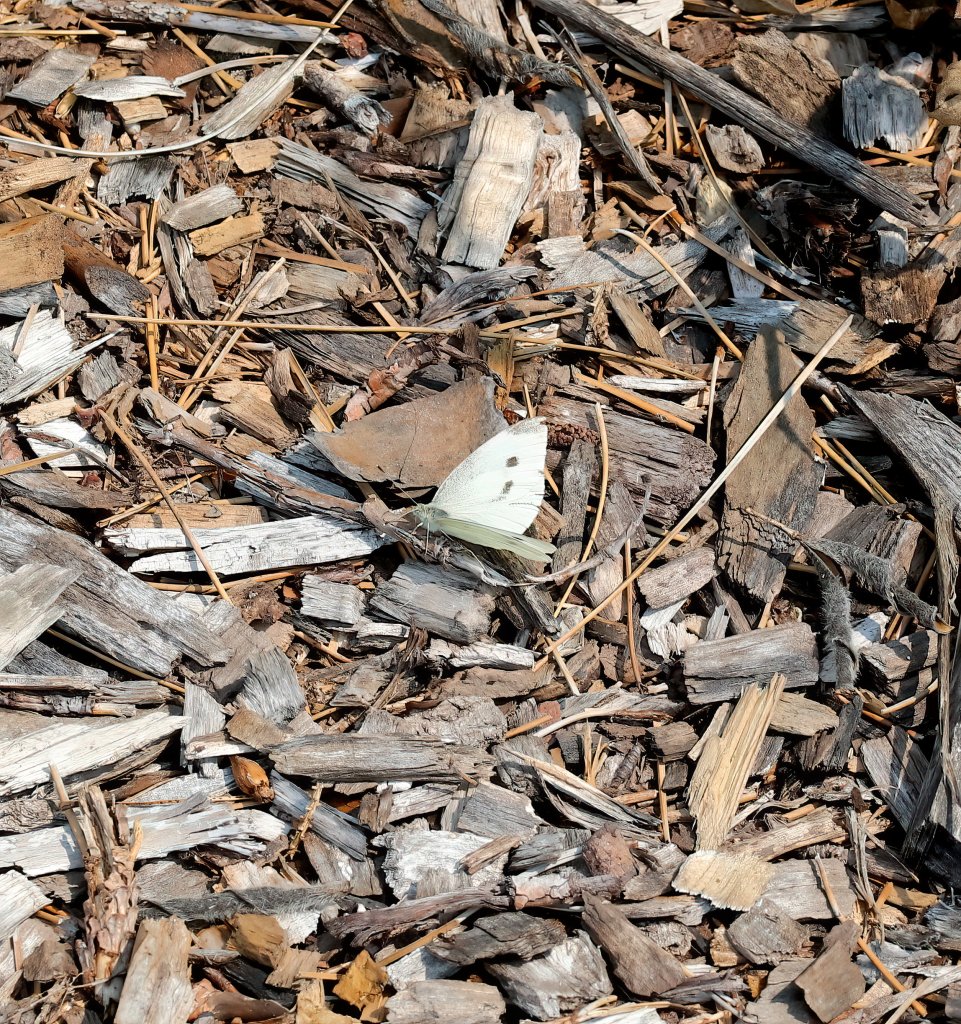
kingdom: Animalia
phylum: Arthropoda
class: Insecta
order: Lepidoptera
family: Pieridae
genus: Pieris
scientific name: Pieris rapae
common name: Cabbage White
